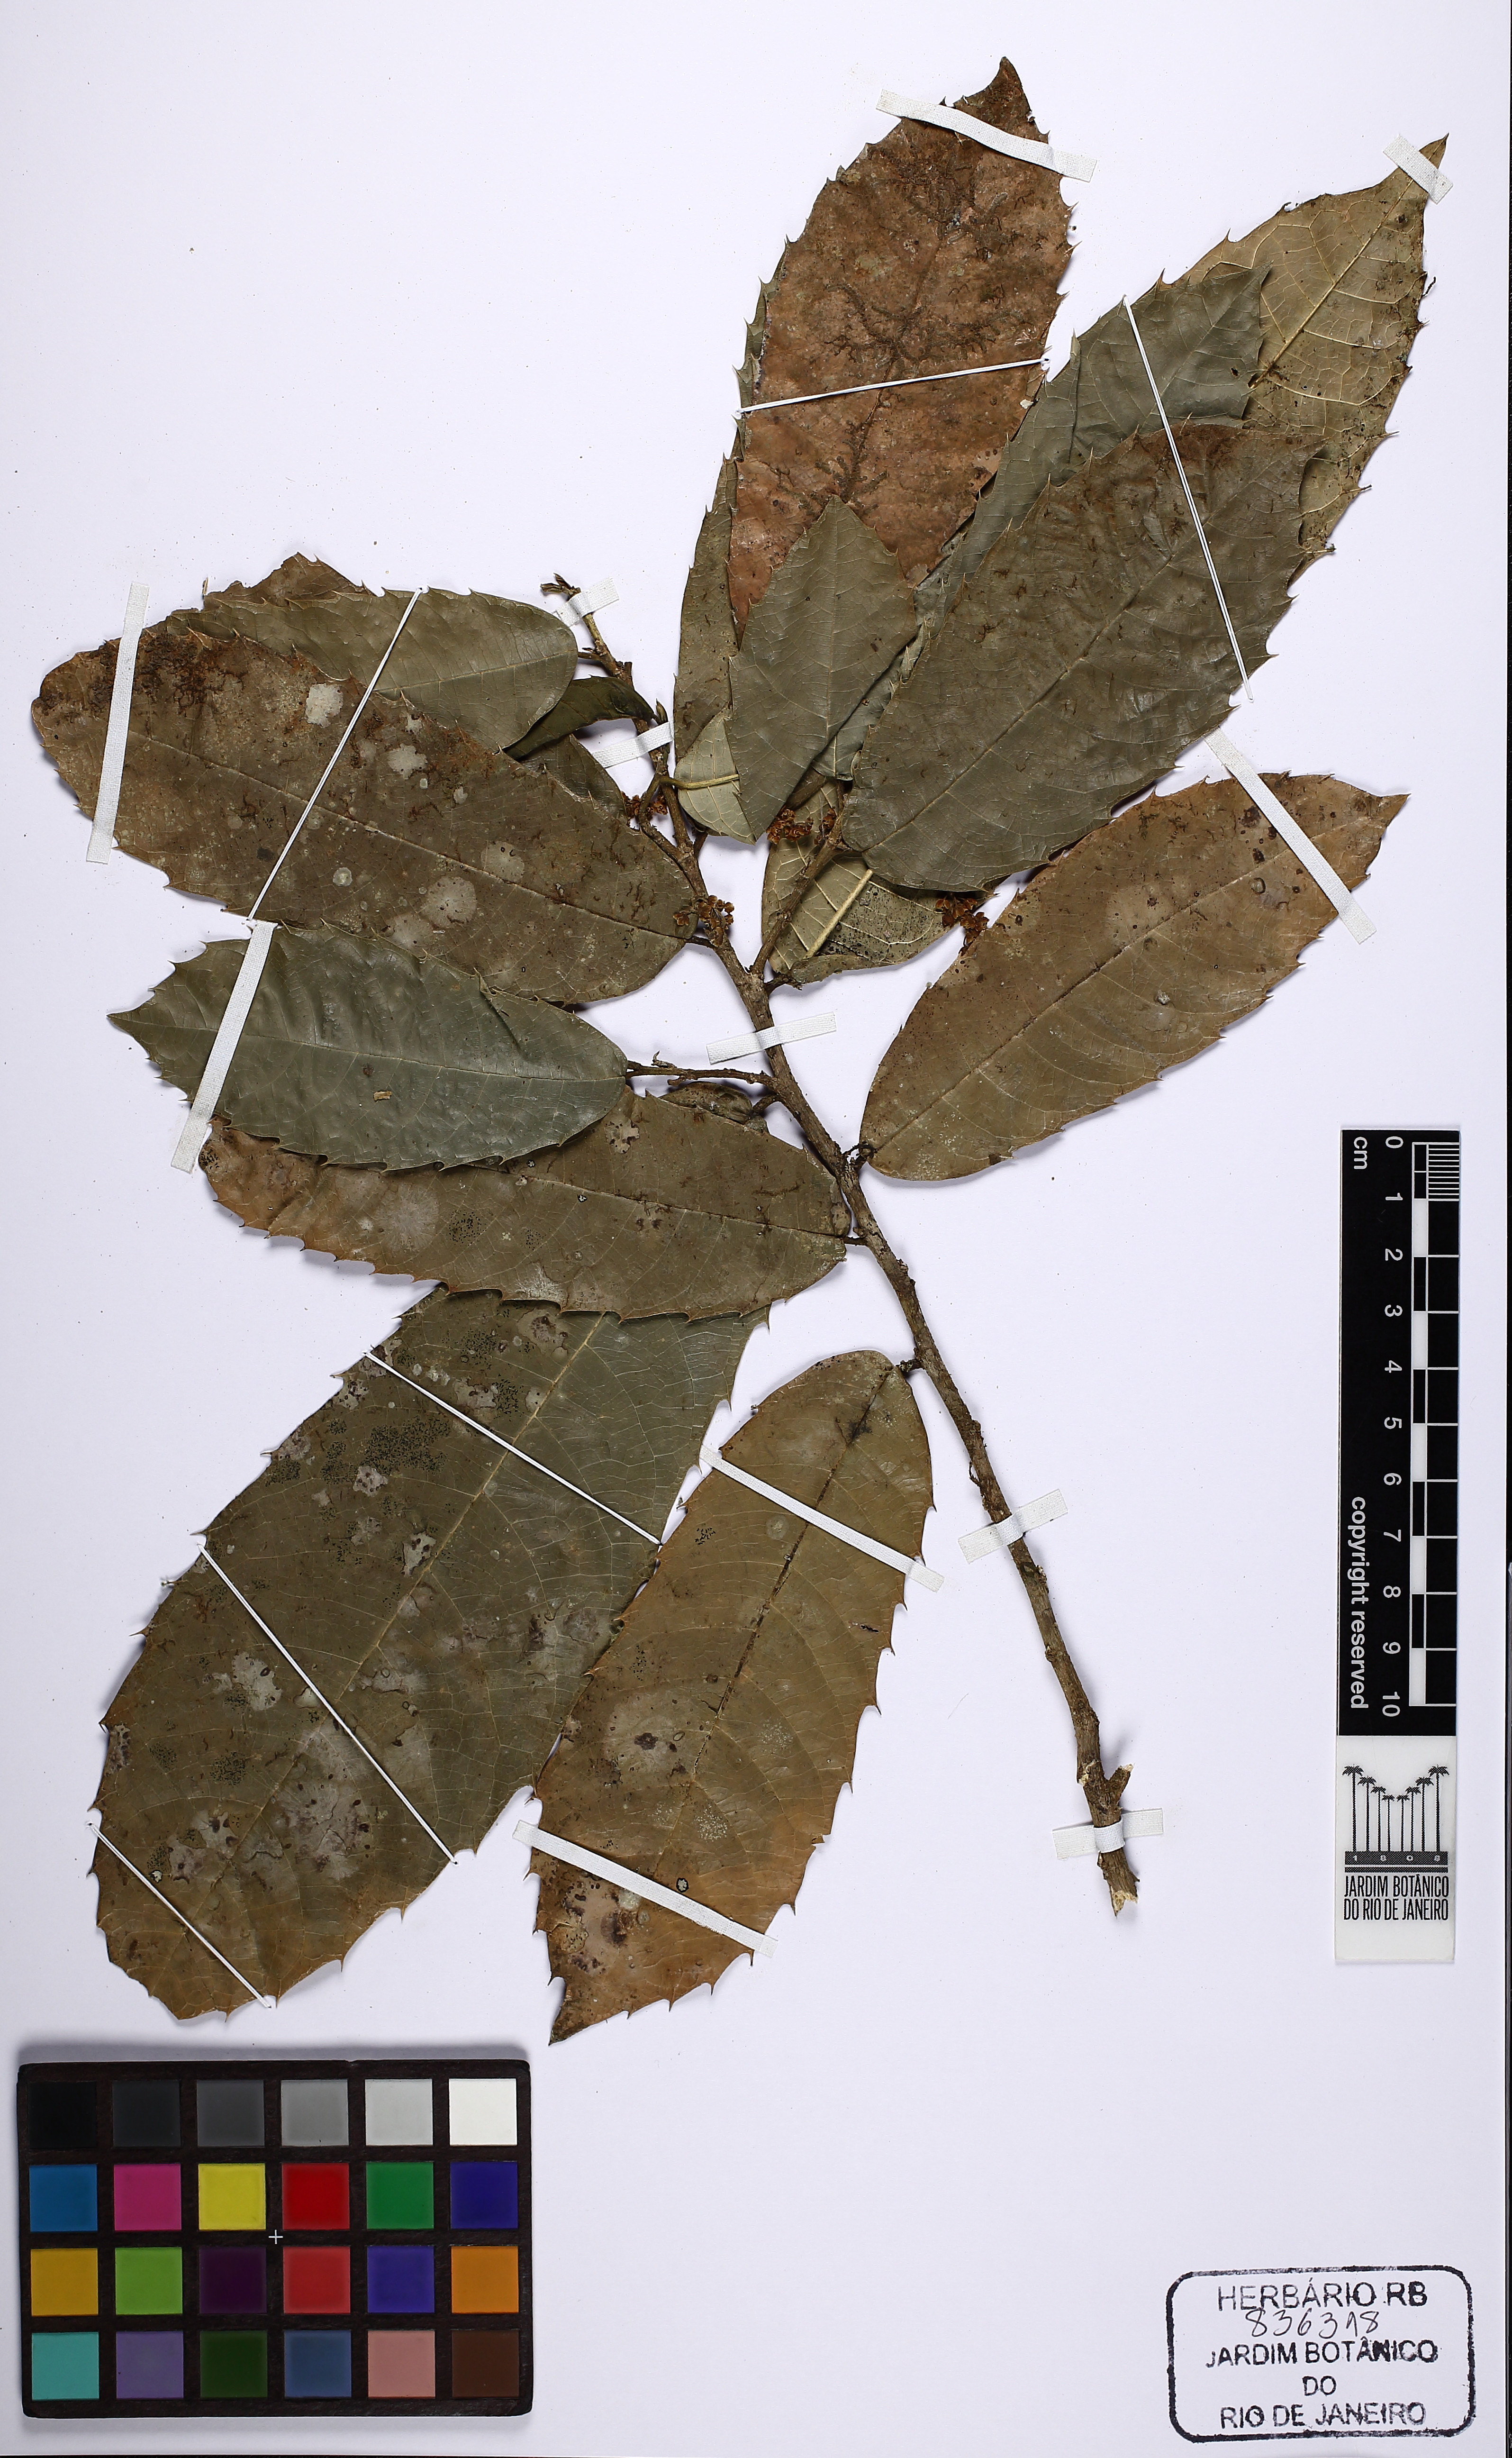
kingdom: Plantae
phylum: Tracheophyta
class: Magnoliopsida
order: Rosales
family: Moraceae
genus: Sorocea
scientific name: Sorocea bonplandii
